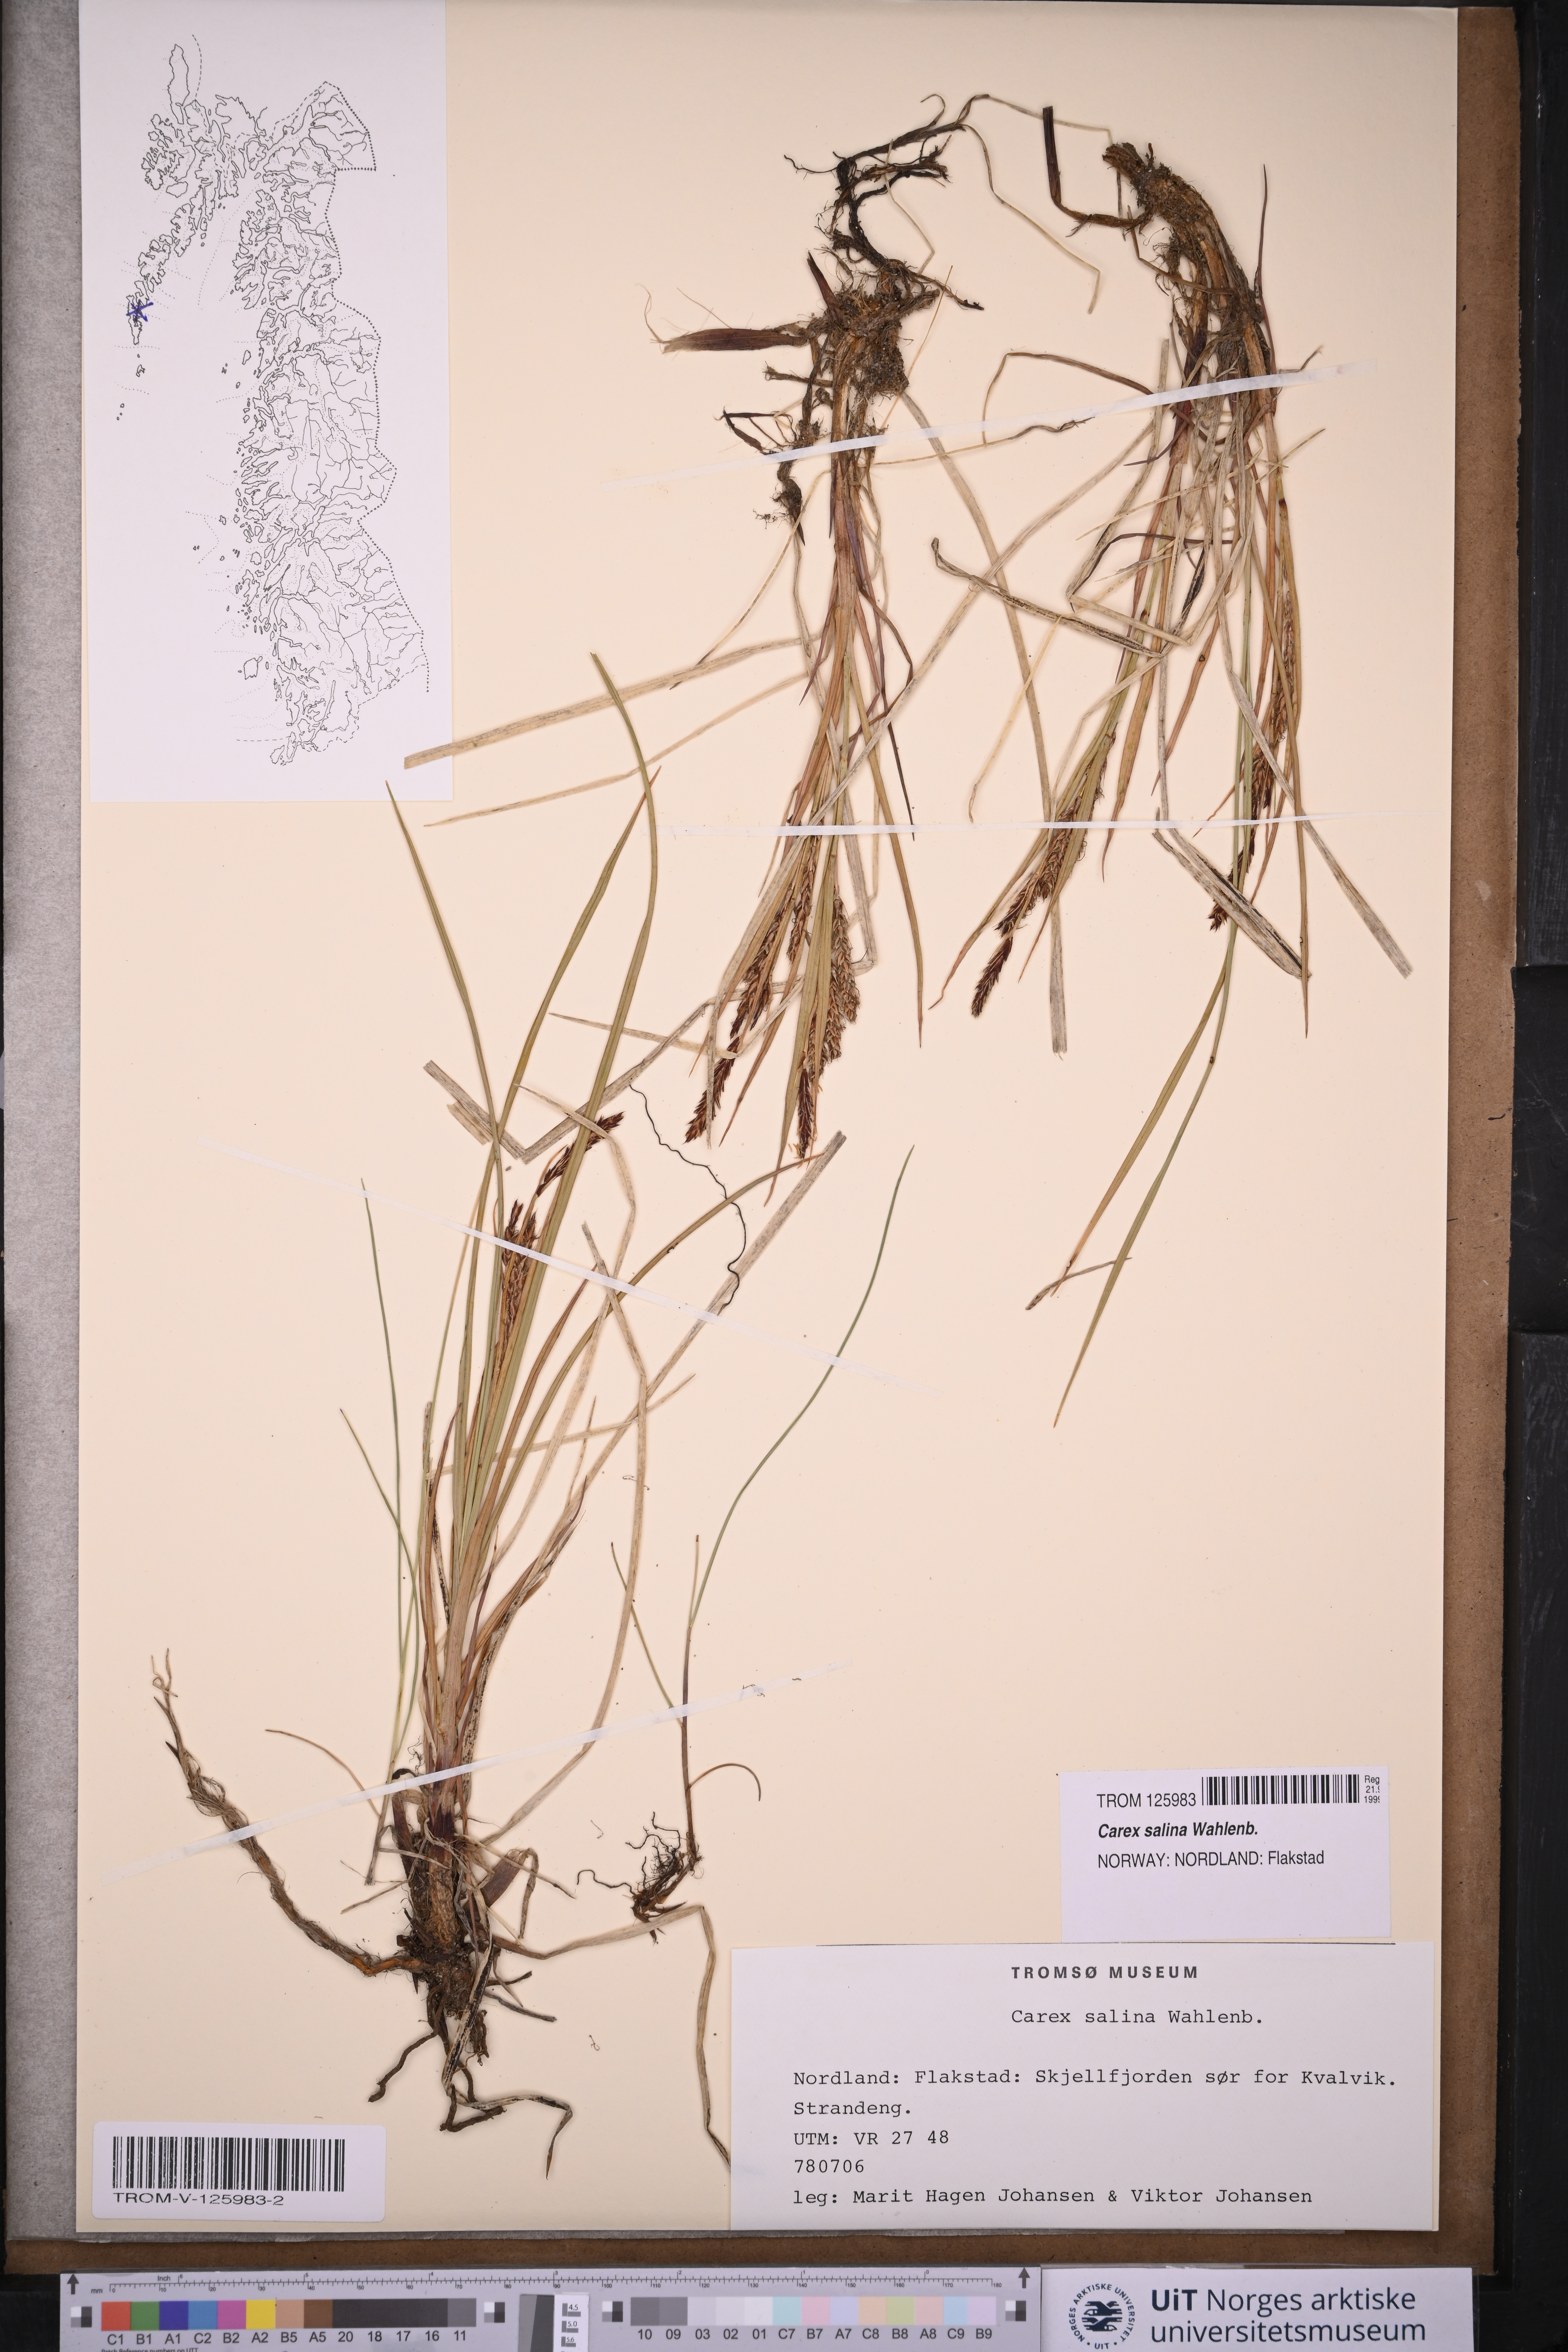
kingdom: Plantae
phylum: Tracheophyta
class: Liliopsida
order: Poales
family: Cyperaceae
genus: Carex
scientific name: Carex salina
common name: Saltmarsh sedge
